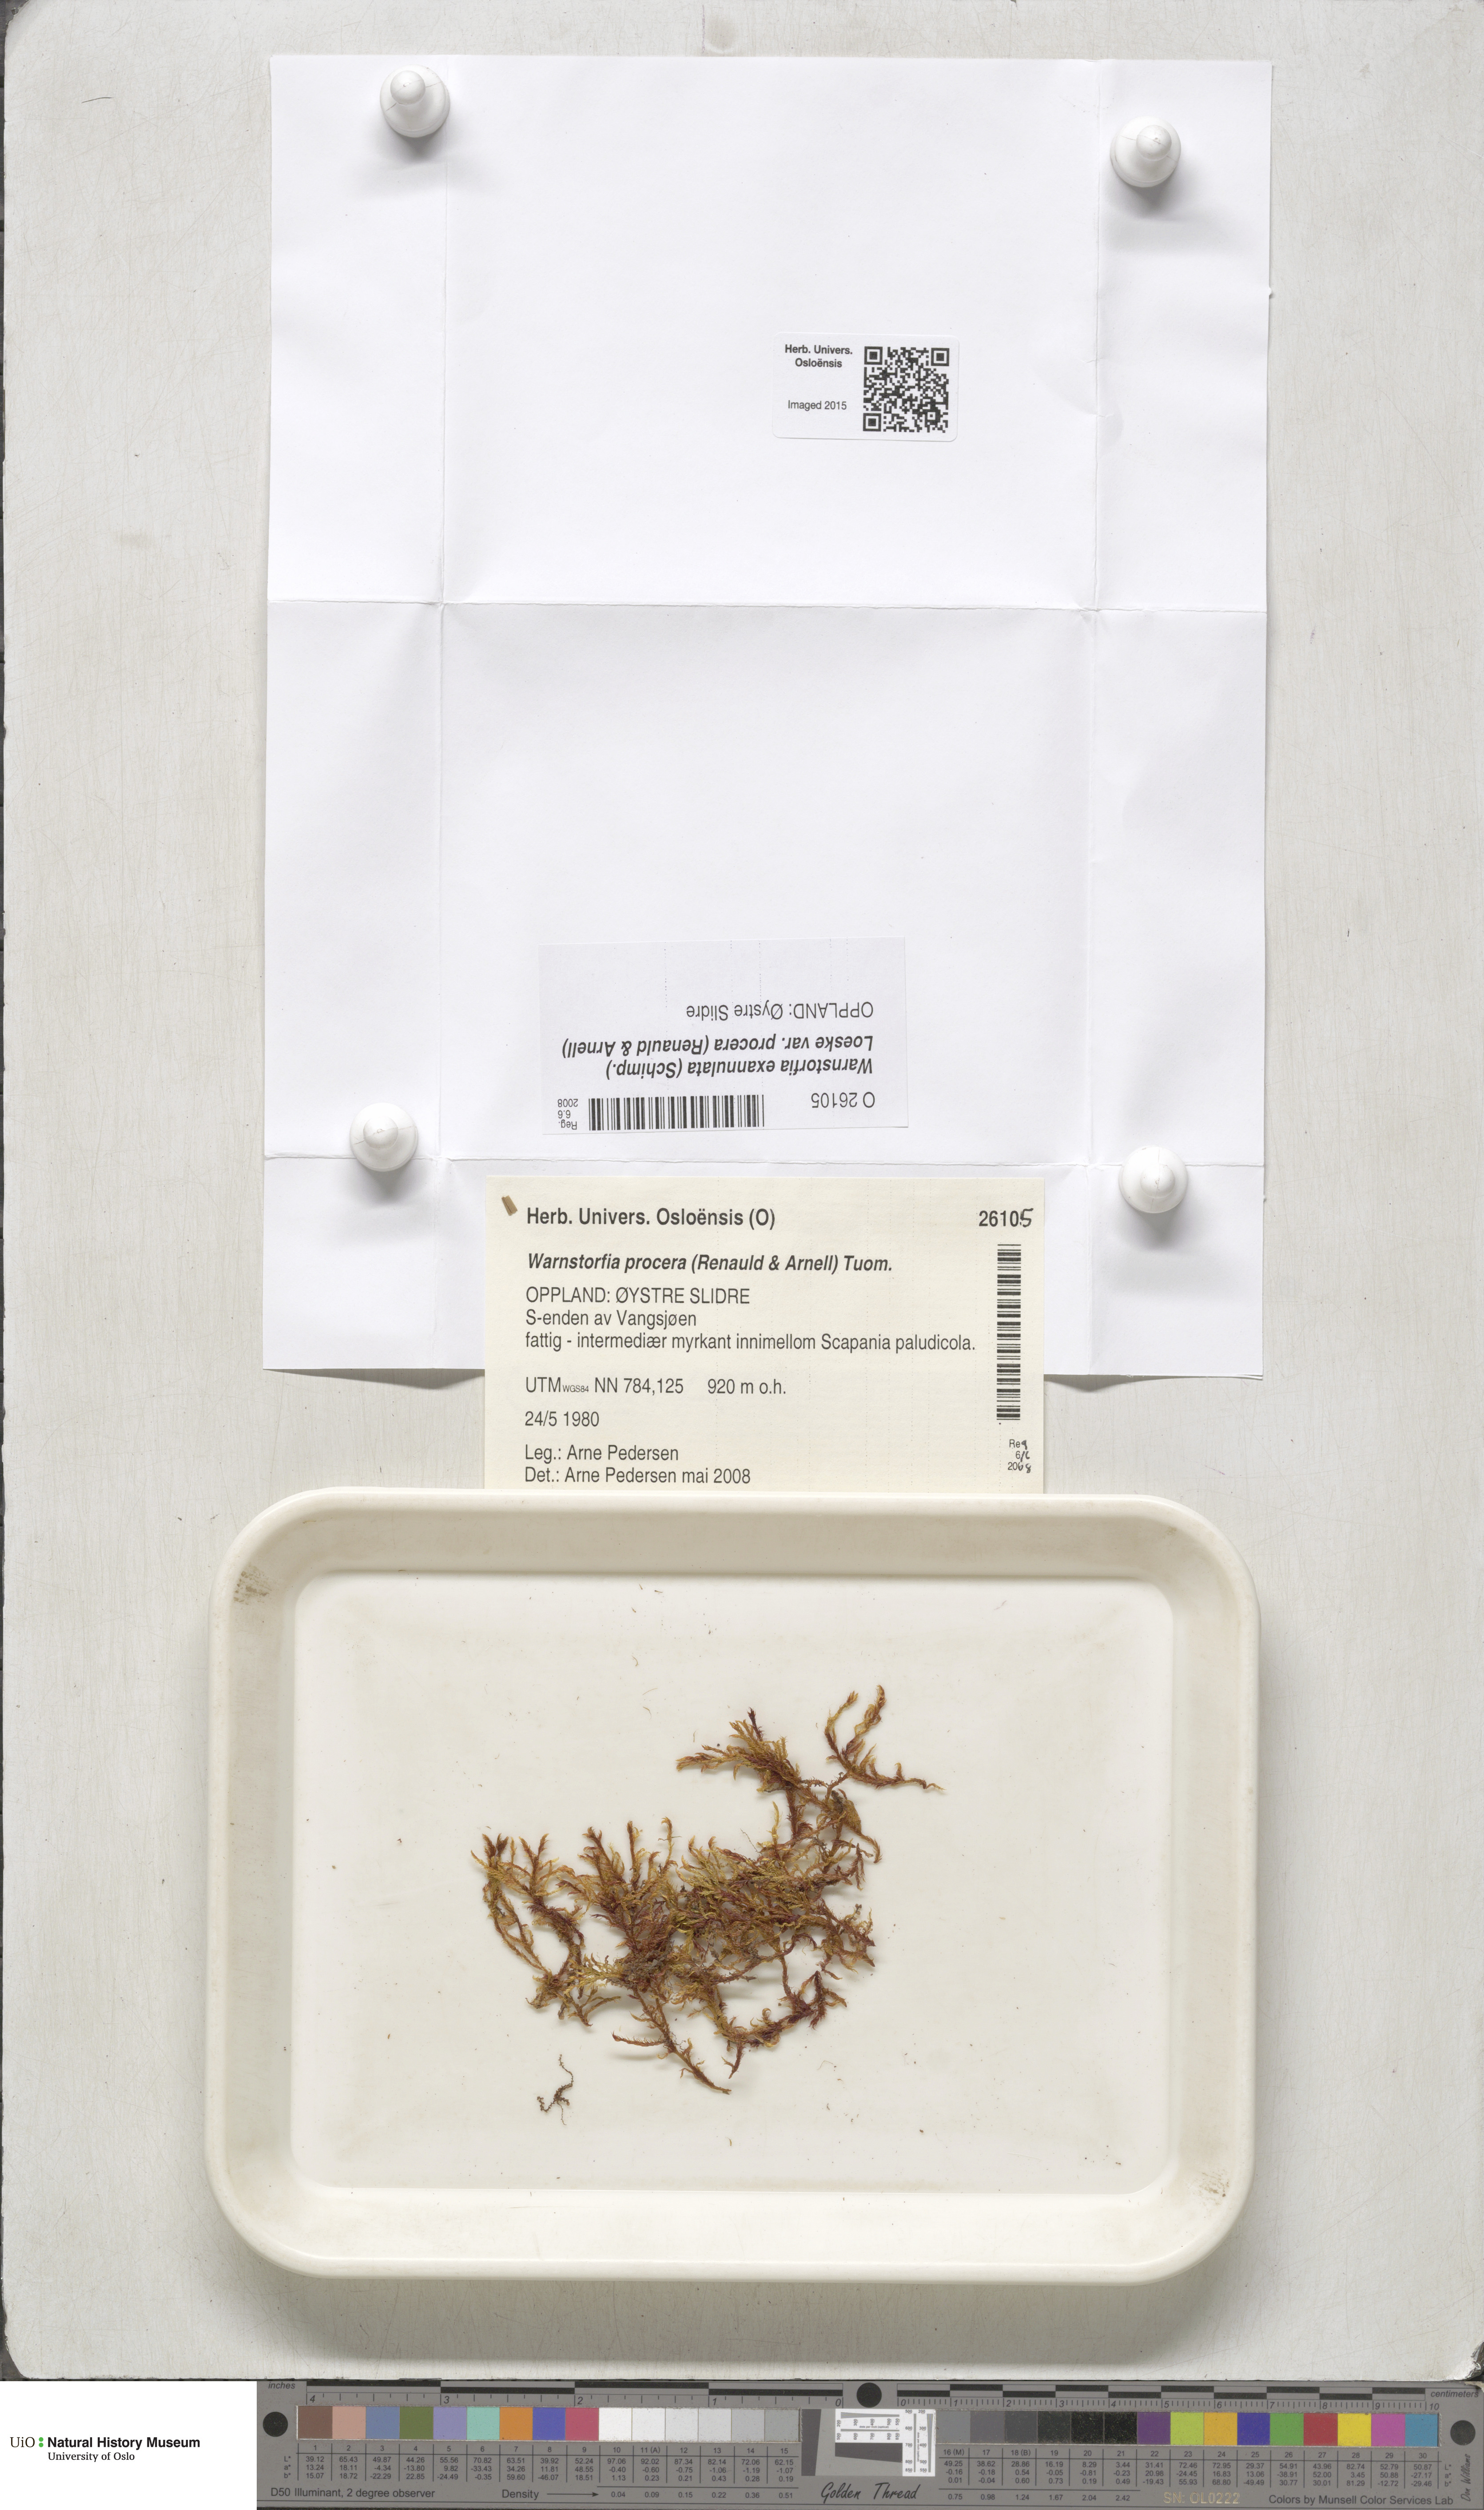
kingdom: Plantae
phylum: Bryophyta
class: Bryopsida
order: Hypnales
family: Calliergonaceae
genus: Sarmentypnum
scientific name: Sarmentypnum procerum
